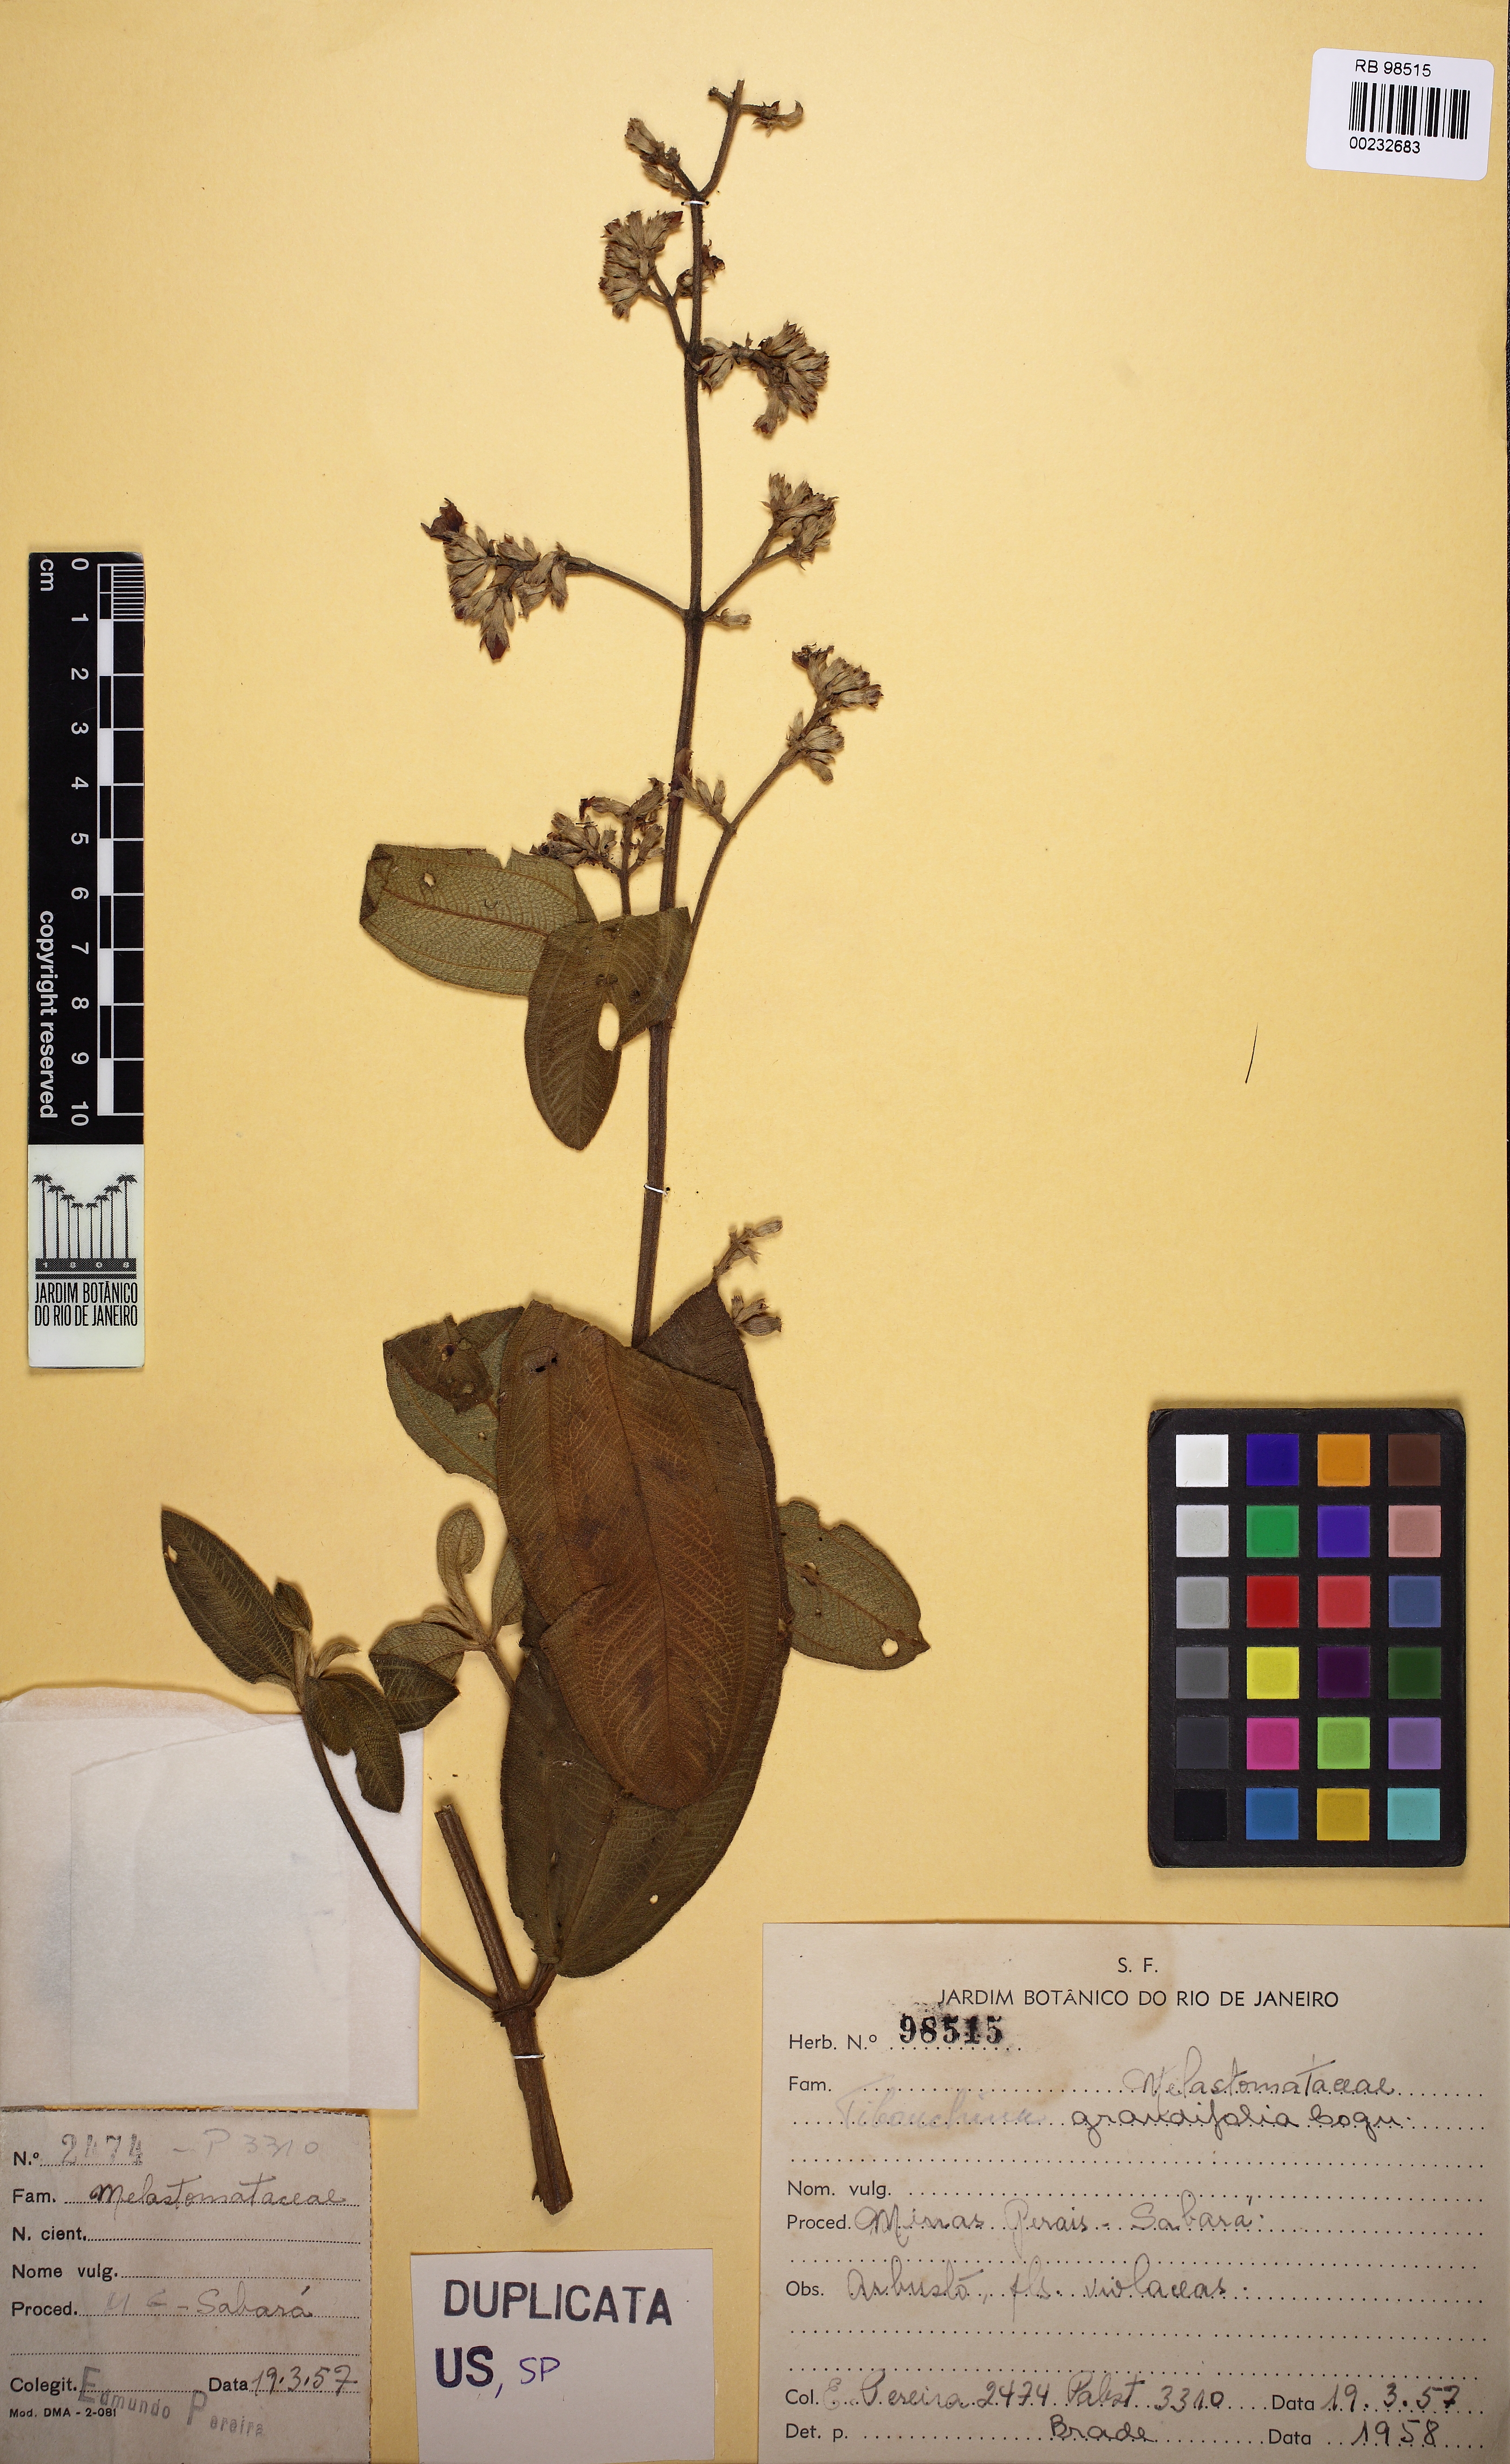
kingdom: Plantae
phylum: Tracheophyta
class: Magnoliopsida
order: Myrtales
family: Melastomataceae
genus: Pleroma
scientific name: Pleroma heteromallum
